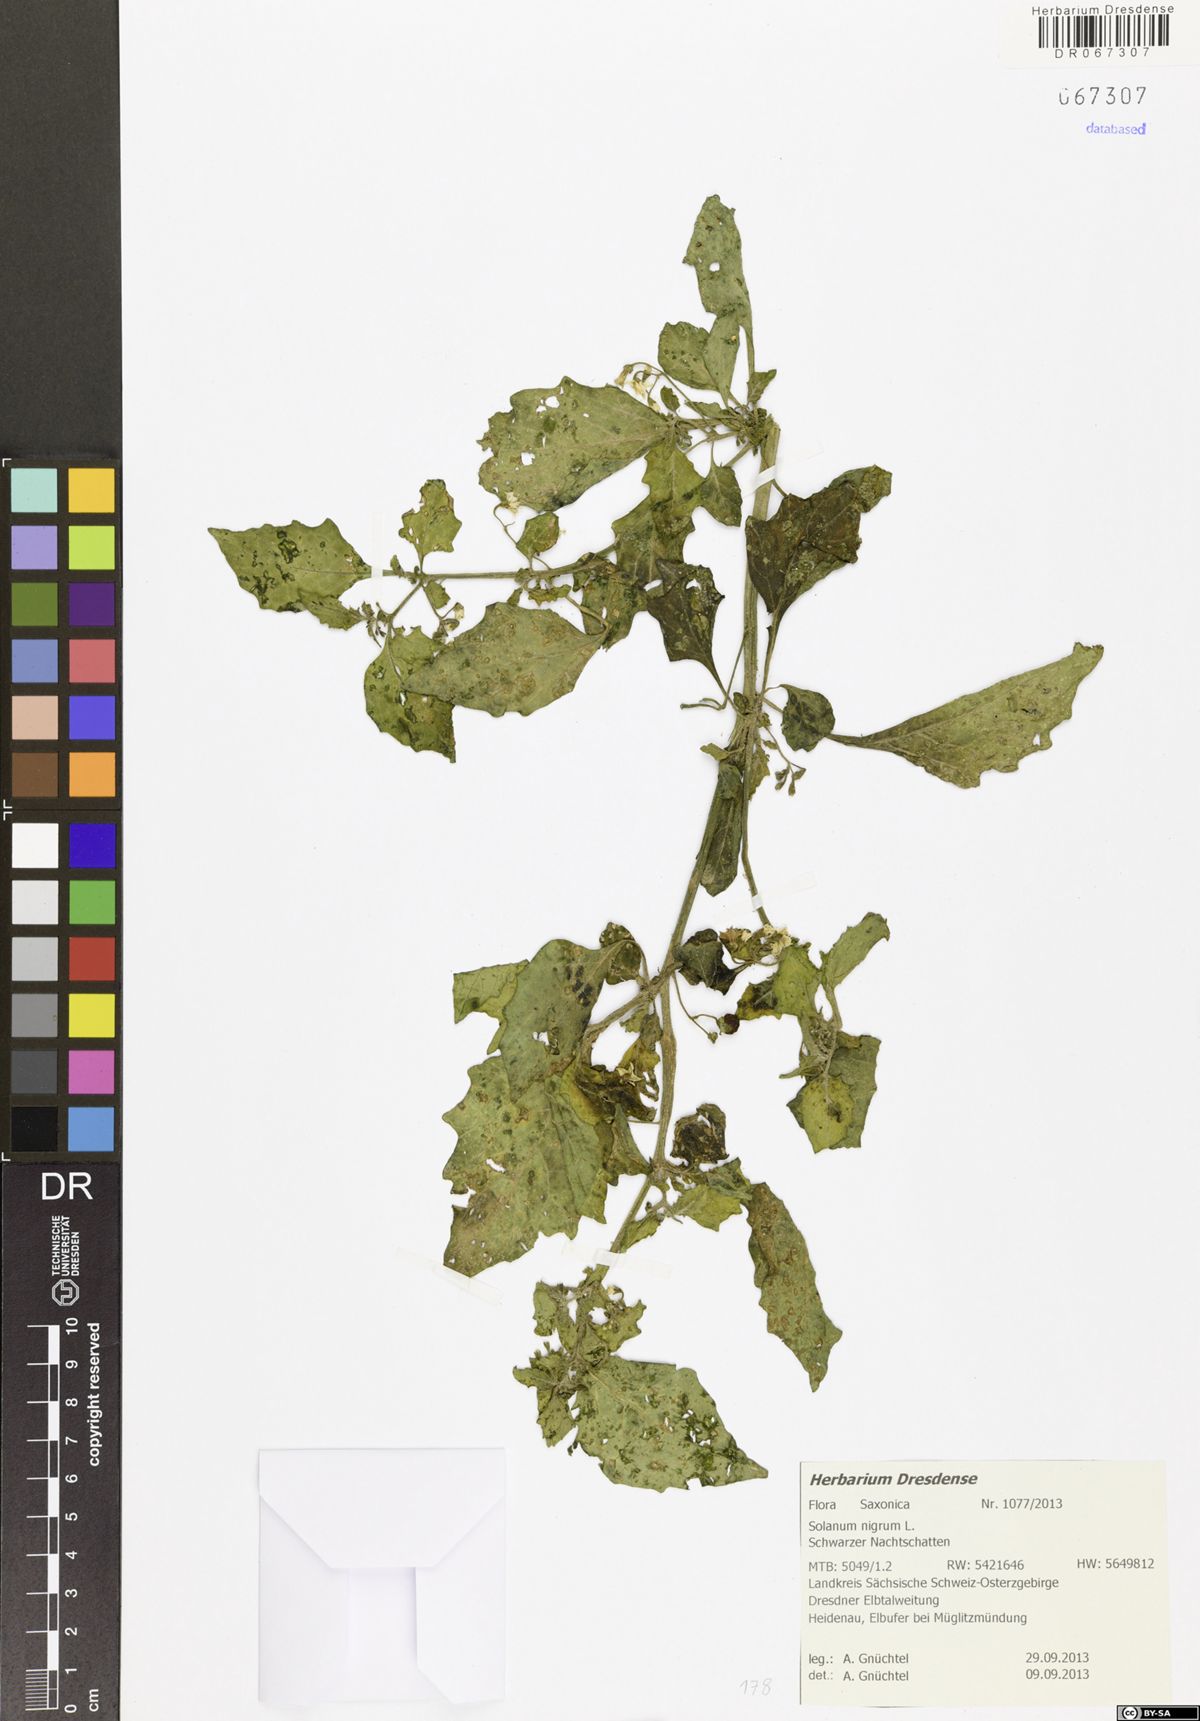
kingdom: Plantae
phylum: Tracheophyta
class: Magnoliopsida
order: Solanales
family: Solanaceae
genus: Solanum
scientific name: Solanum nigrum
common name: Black nightshade
